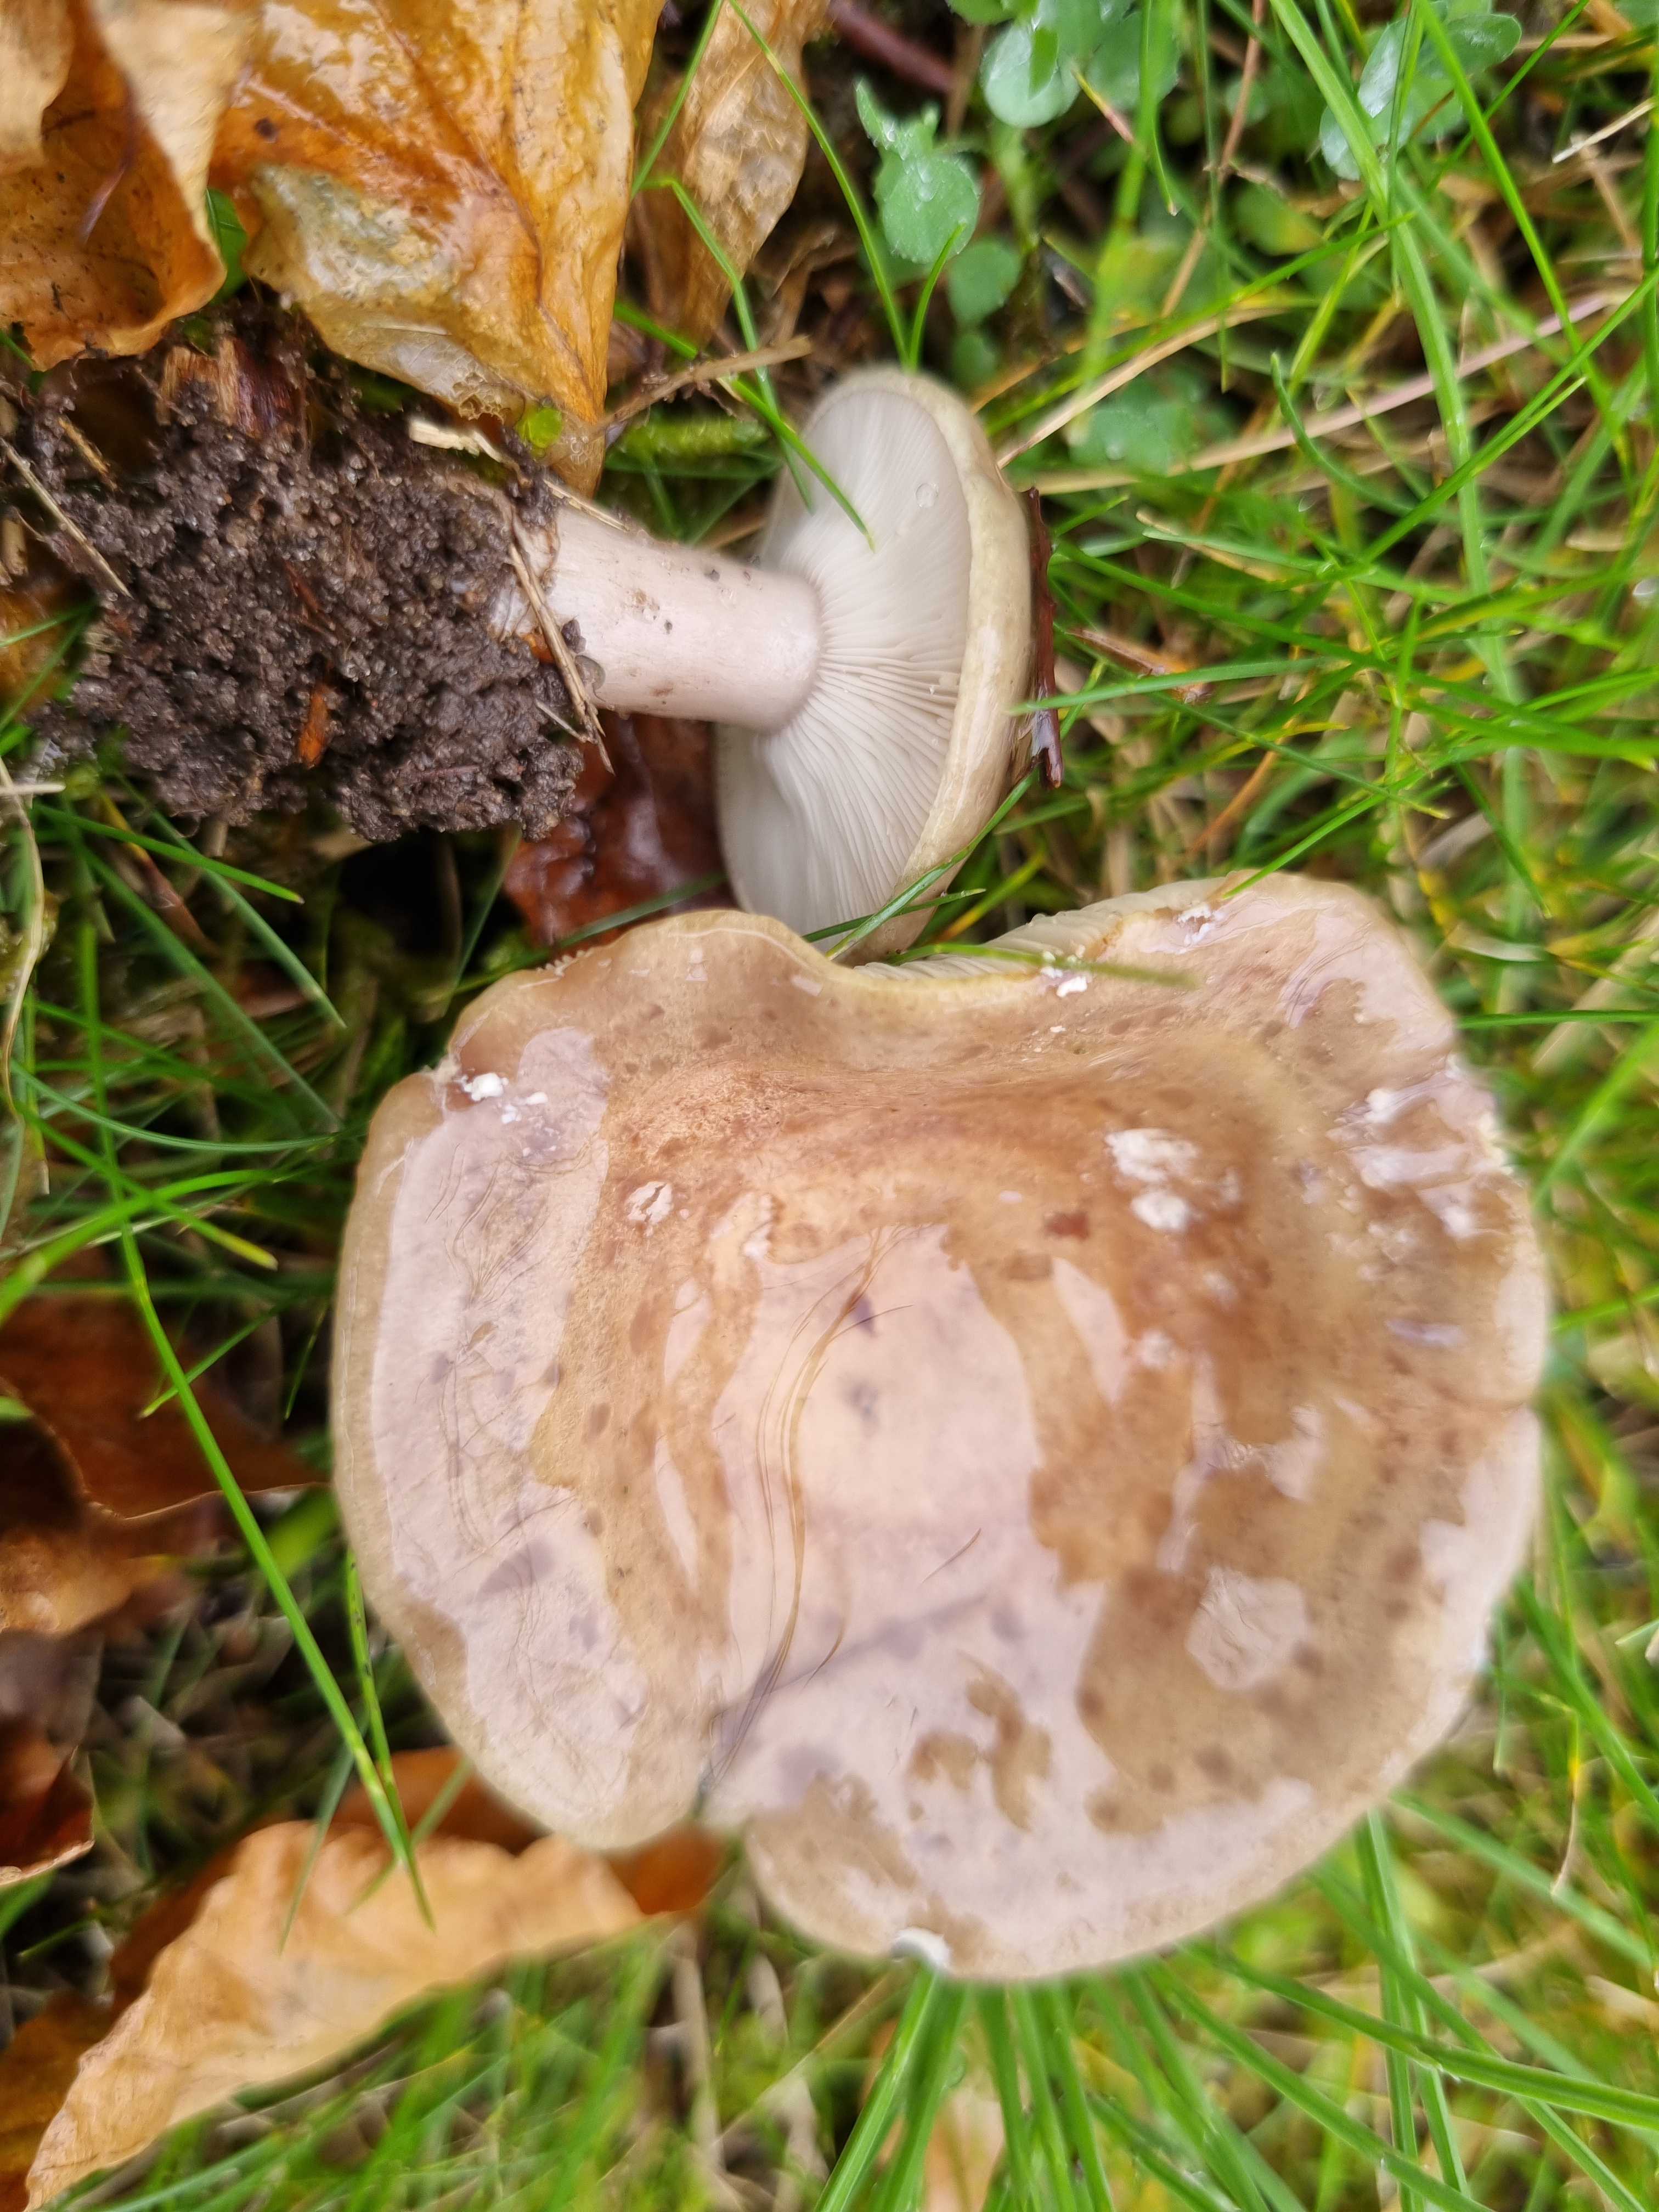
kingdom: Fungi
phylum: Basidiomycota
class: Agaricomycetes
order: Russulales
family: Russulaceae
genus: Lactarius
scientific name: Lactarius blennius
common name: dråbeplettet mælkehat
